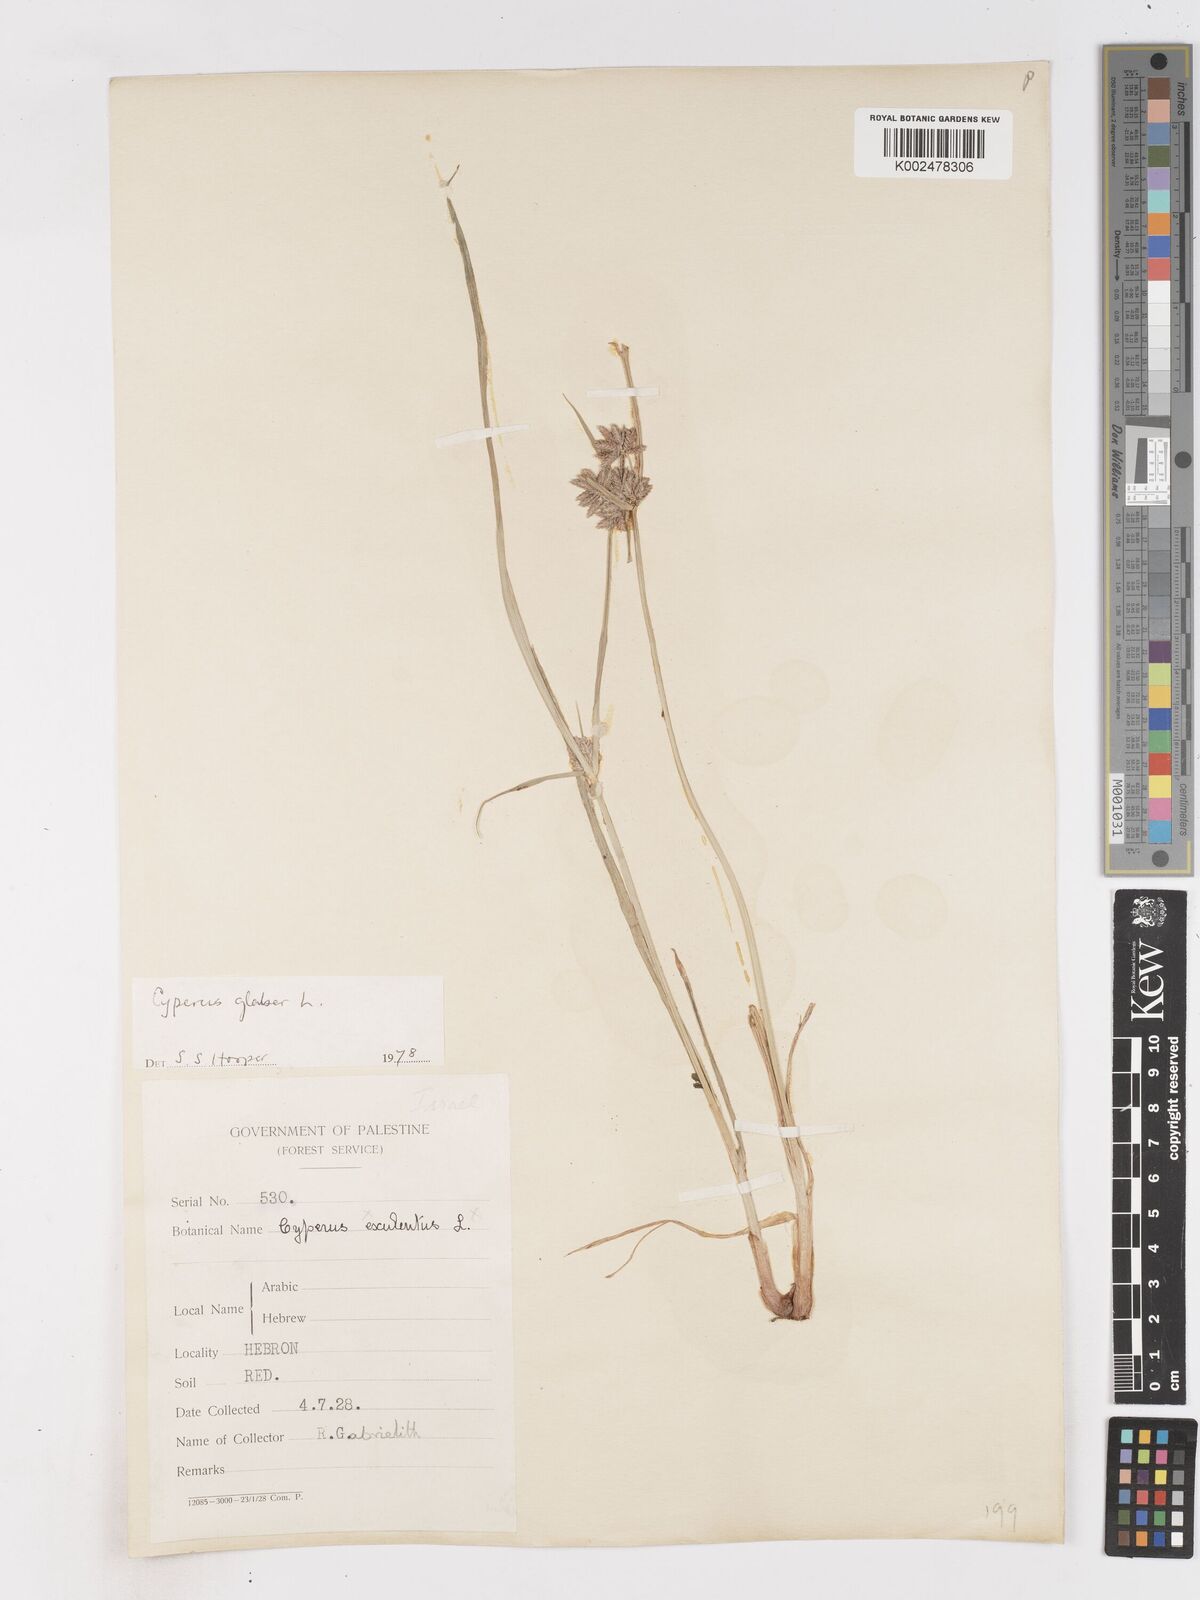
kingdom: Plantae
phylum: Tracheophyta
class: Liliopsida
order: Poales
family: Cyperaceae
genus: Cyperus
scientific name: Cyperus glaber
